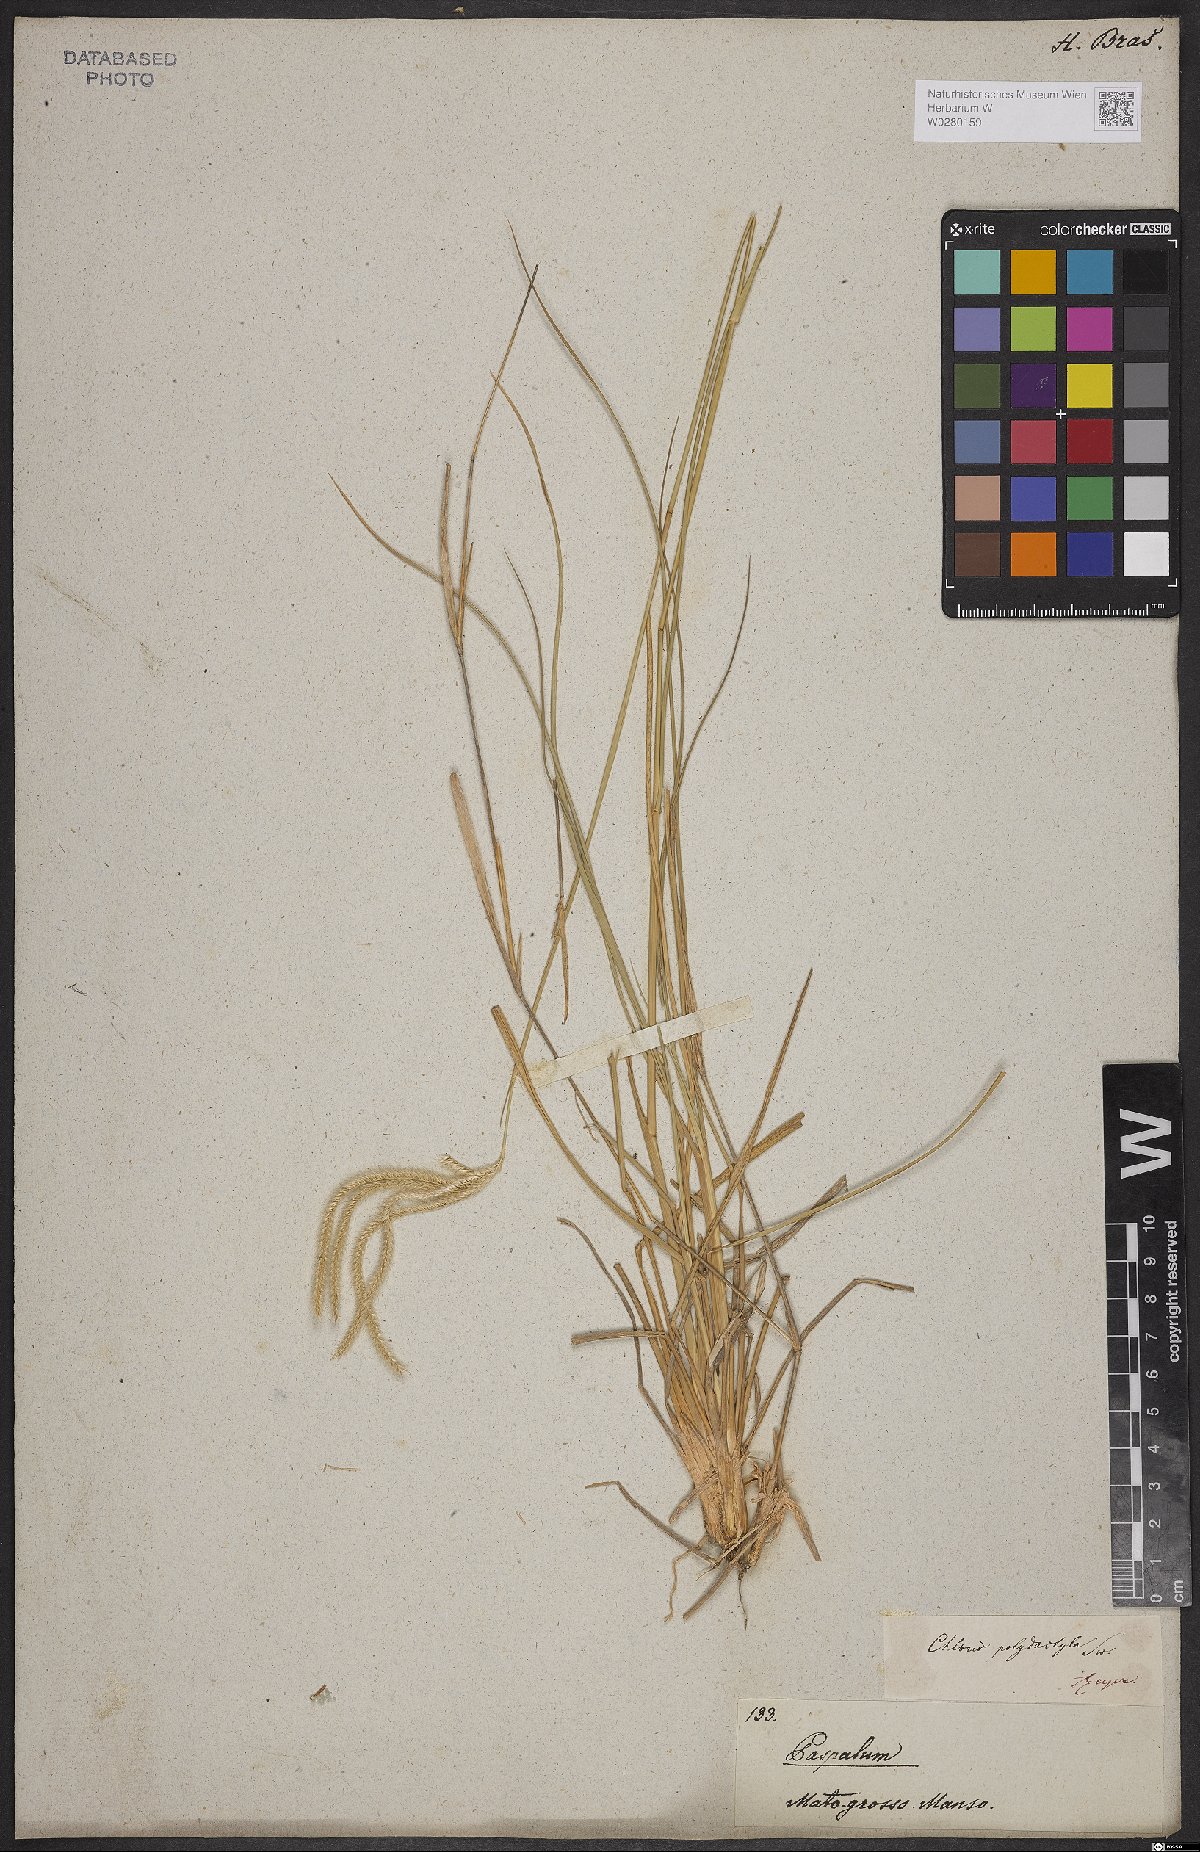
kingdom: Plantae
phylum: Tracheophyta
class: Liliopsida
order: Poales
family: Poaceae
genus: Stapfochloa
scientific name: Stapfochloa elata
